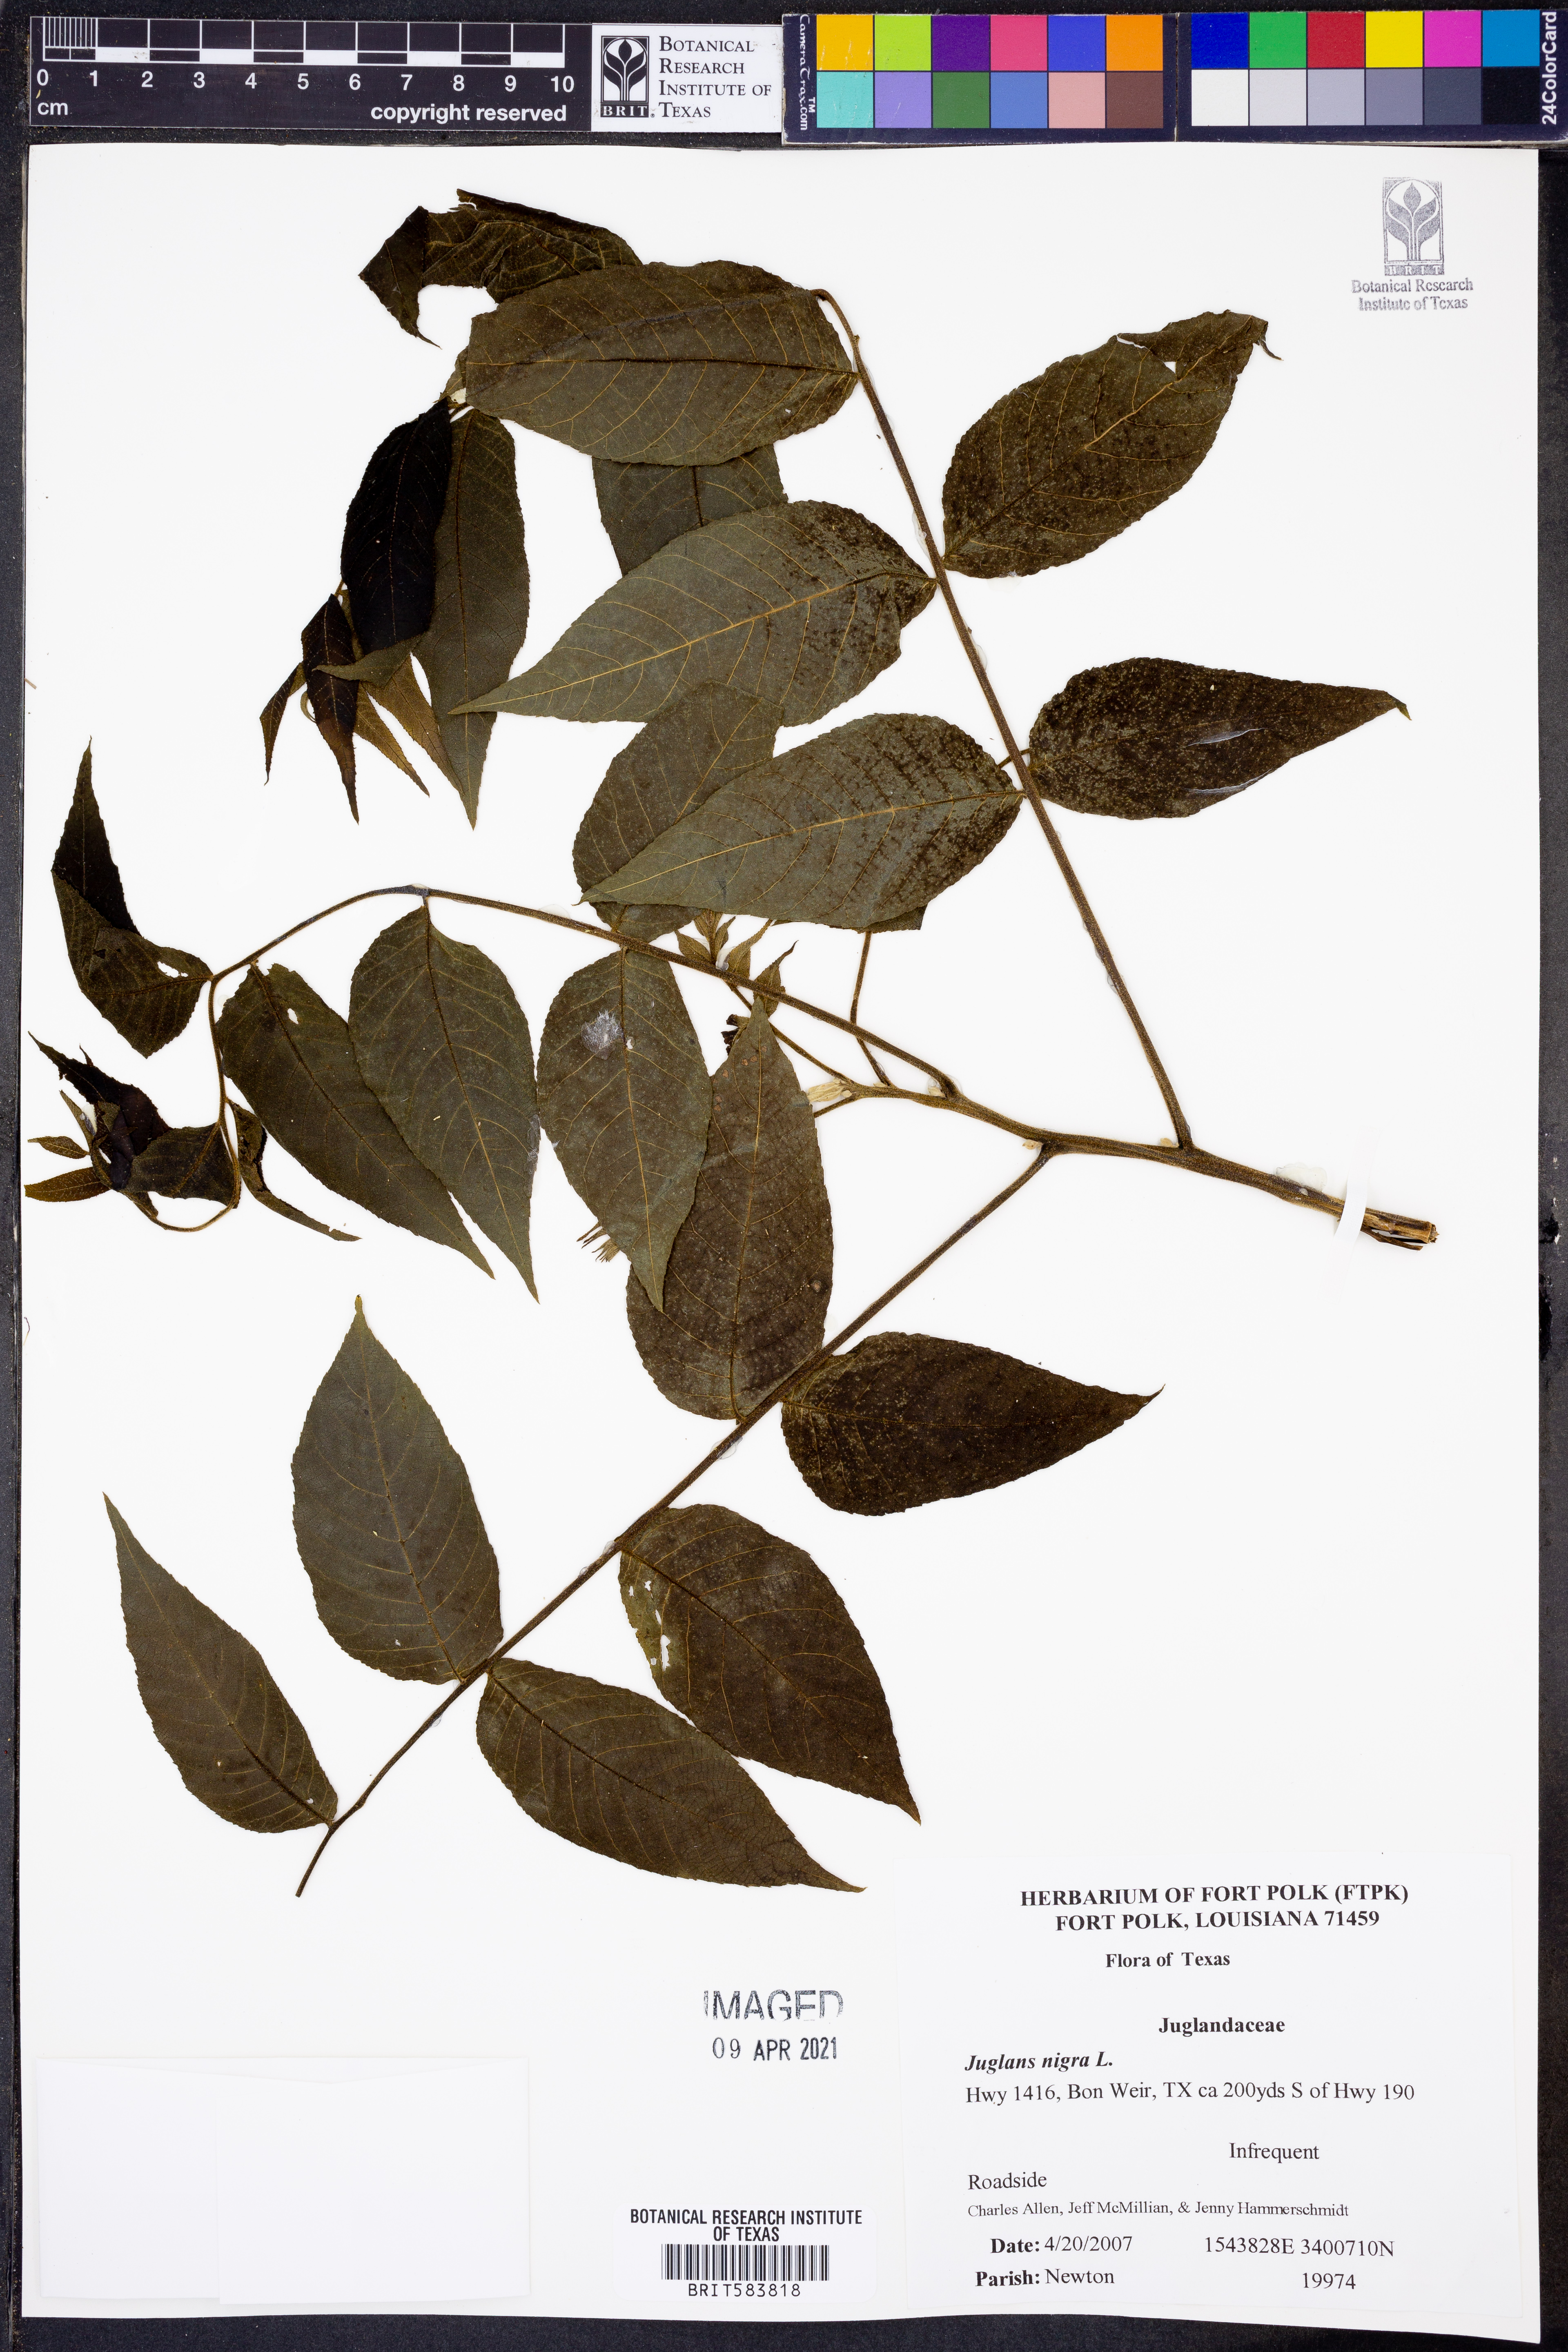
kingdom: Plantae
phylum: Tracheophyta
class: Magnoliopsida
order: Fagales
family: Juglandaceae
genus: Juglans
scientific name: Juglans nigra
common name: Black walnut
